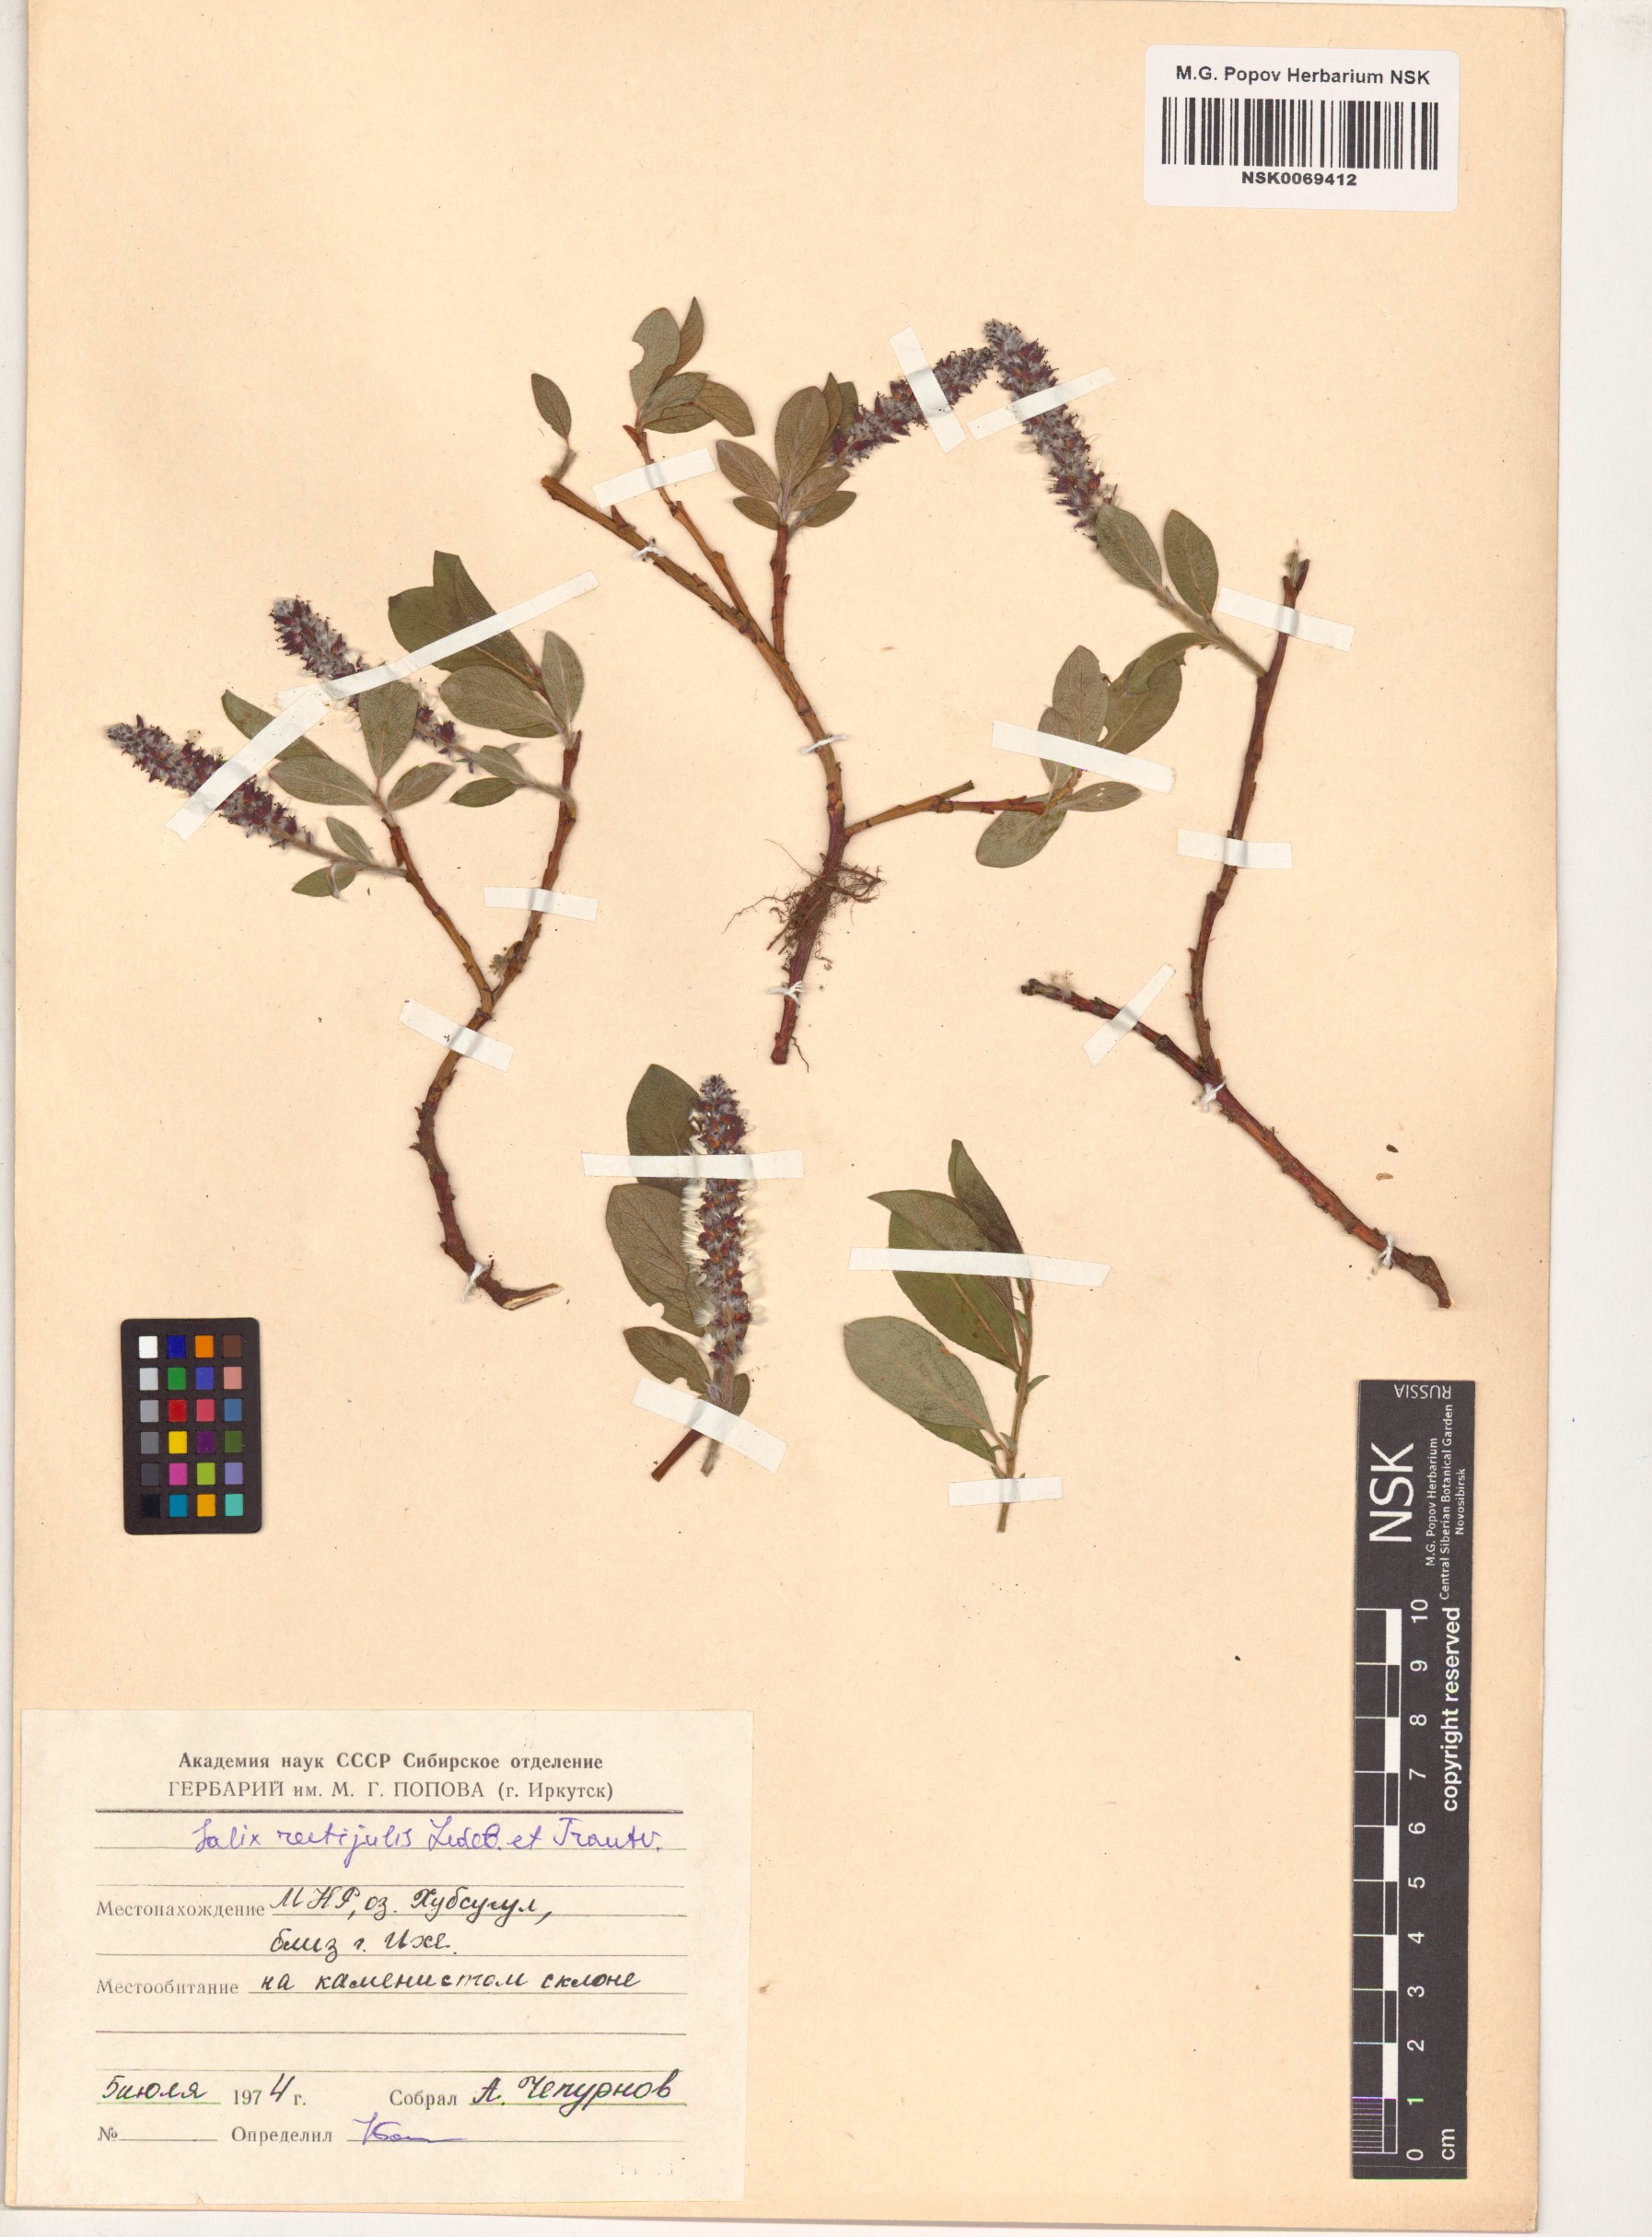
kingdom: Plantae
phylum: Tracheophyta
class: Magnoliopsida
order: Malpighiales
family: Salicaceae
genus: Salix
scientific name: Salix rectijulis
